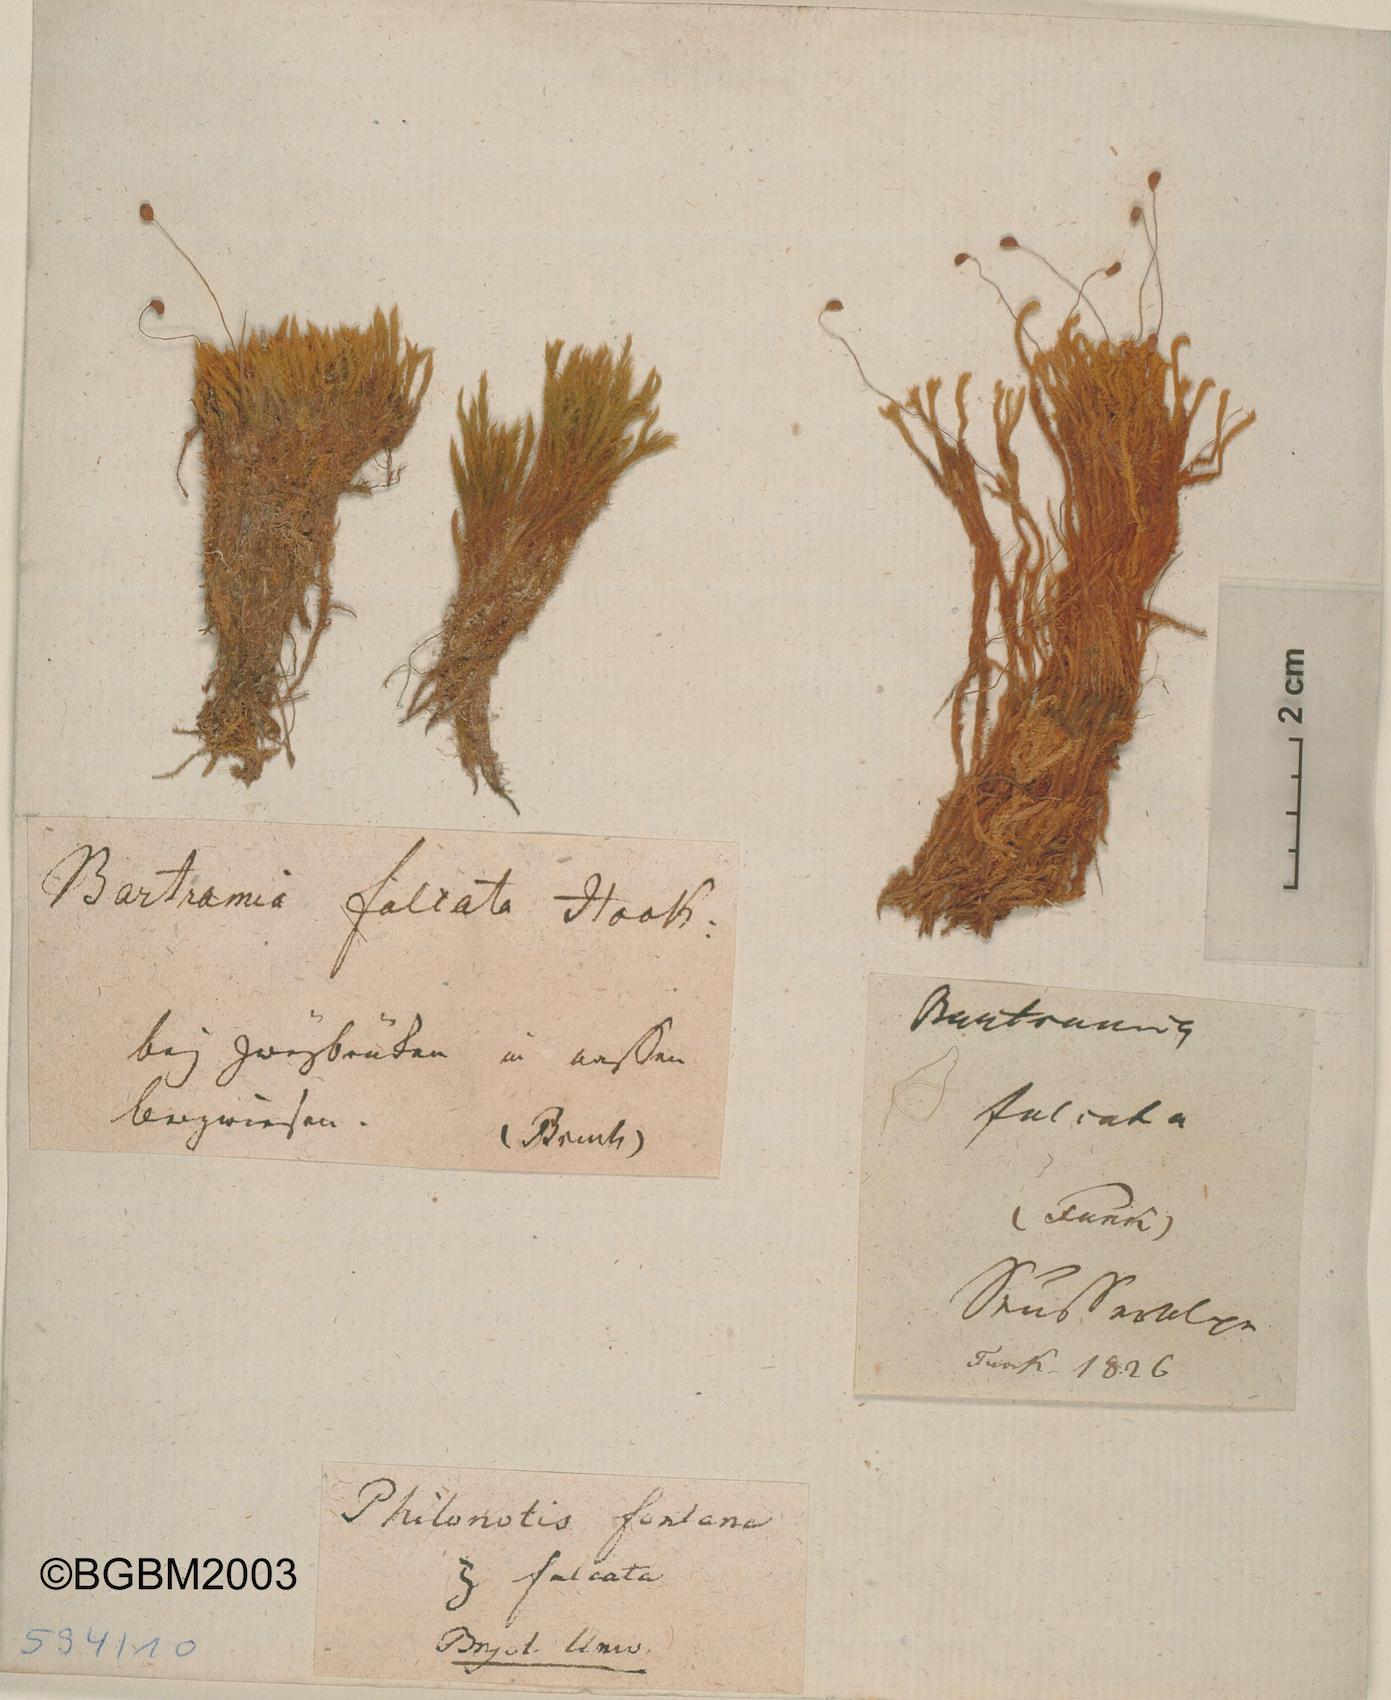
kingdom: Plantae
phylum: Bryophyta
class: Bryopsida
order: Bartramiales
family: Bartramiaceae
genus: Philonotis
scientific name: Philonotis fontana
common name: Fountain apple-moss
